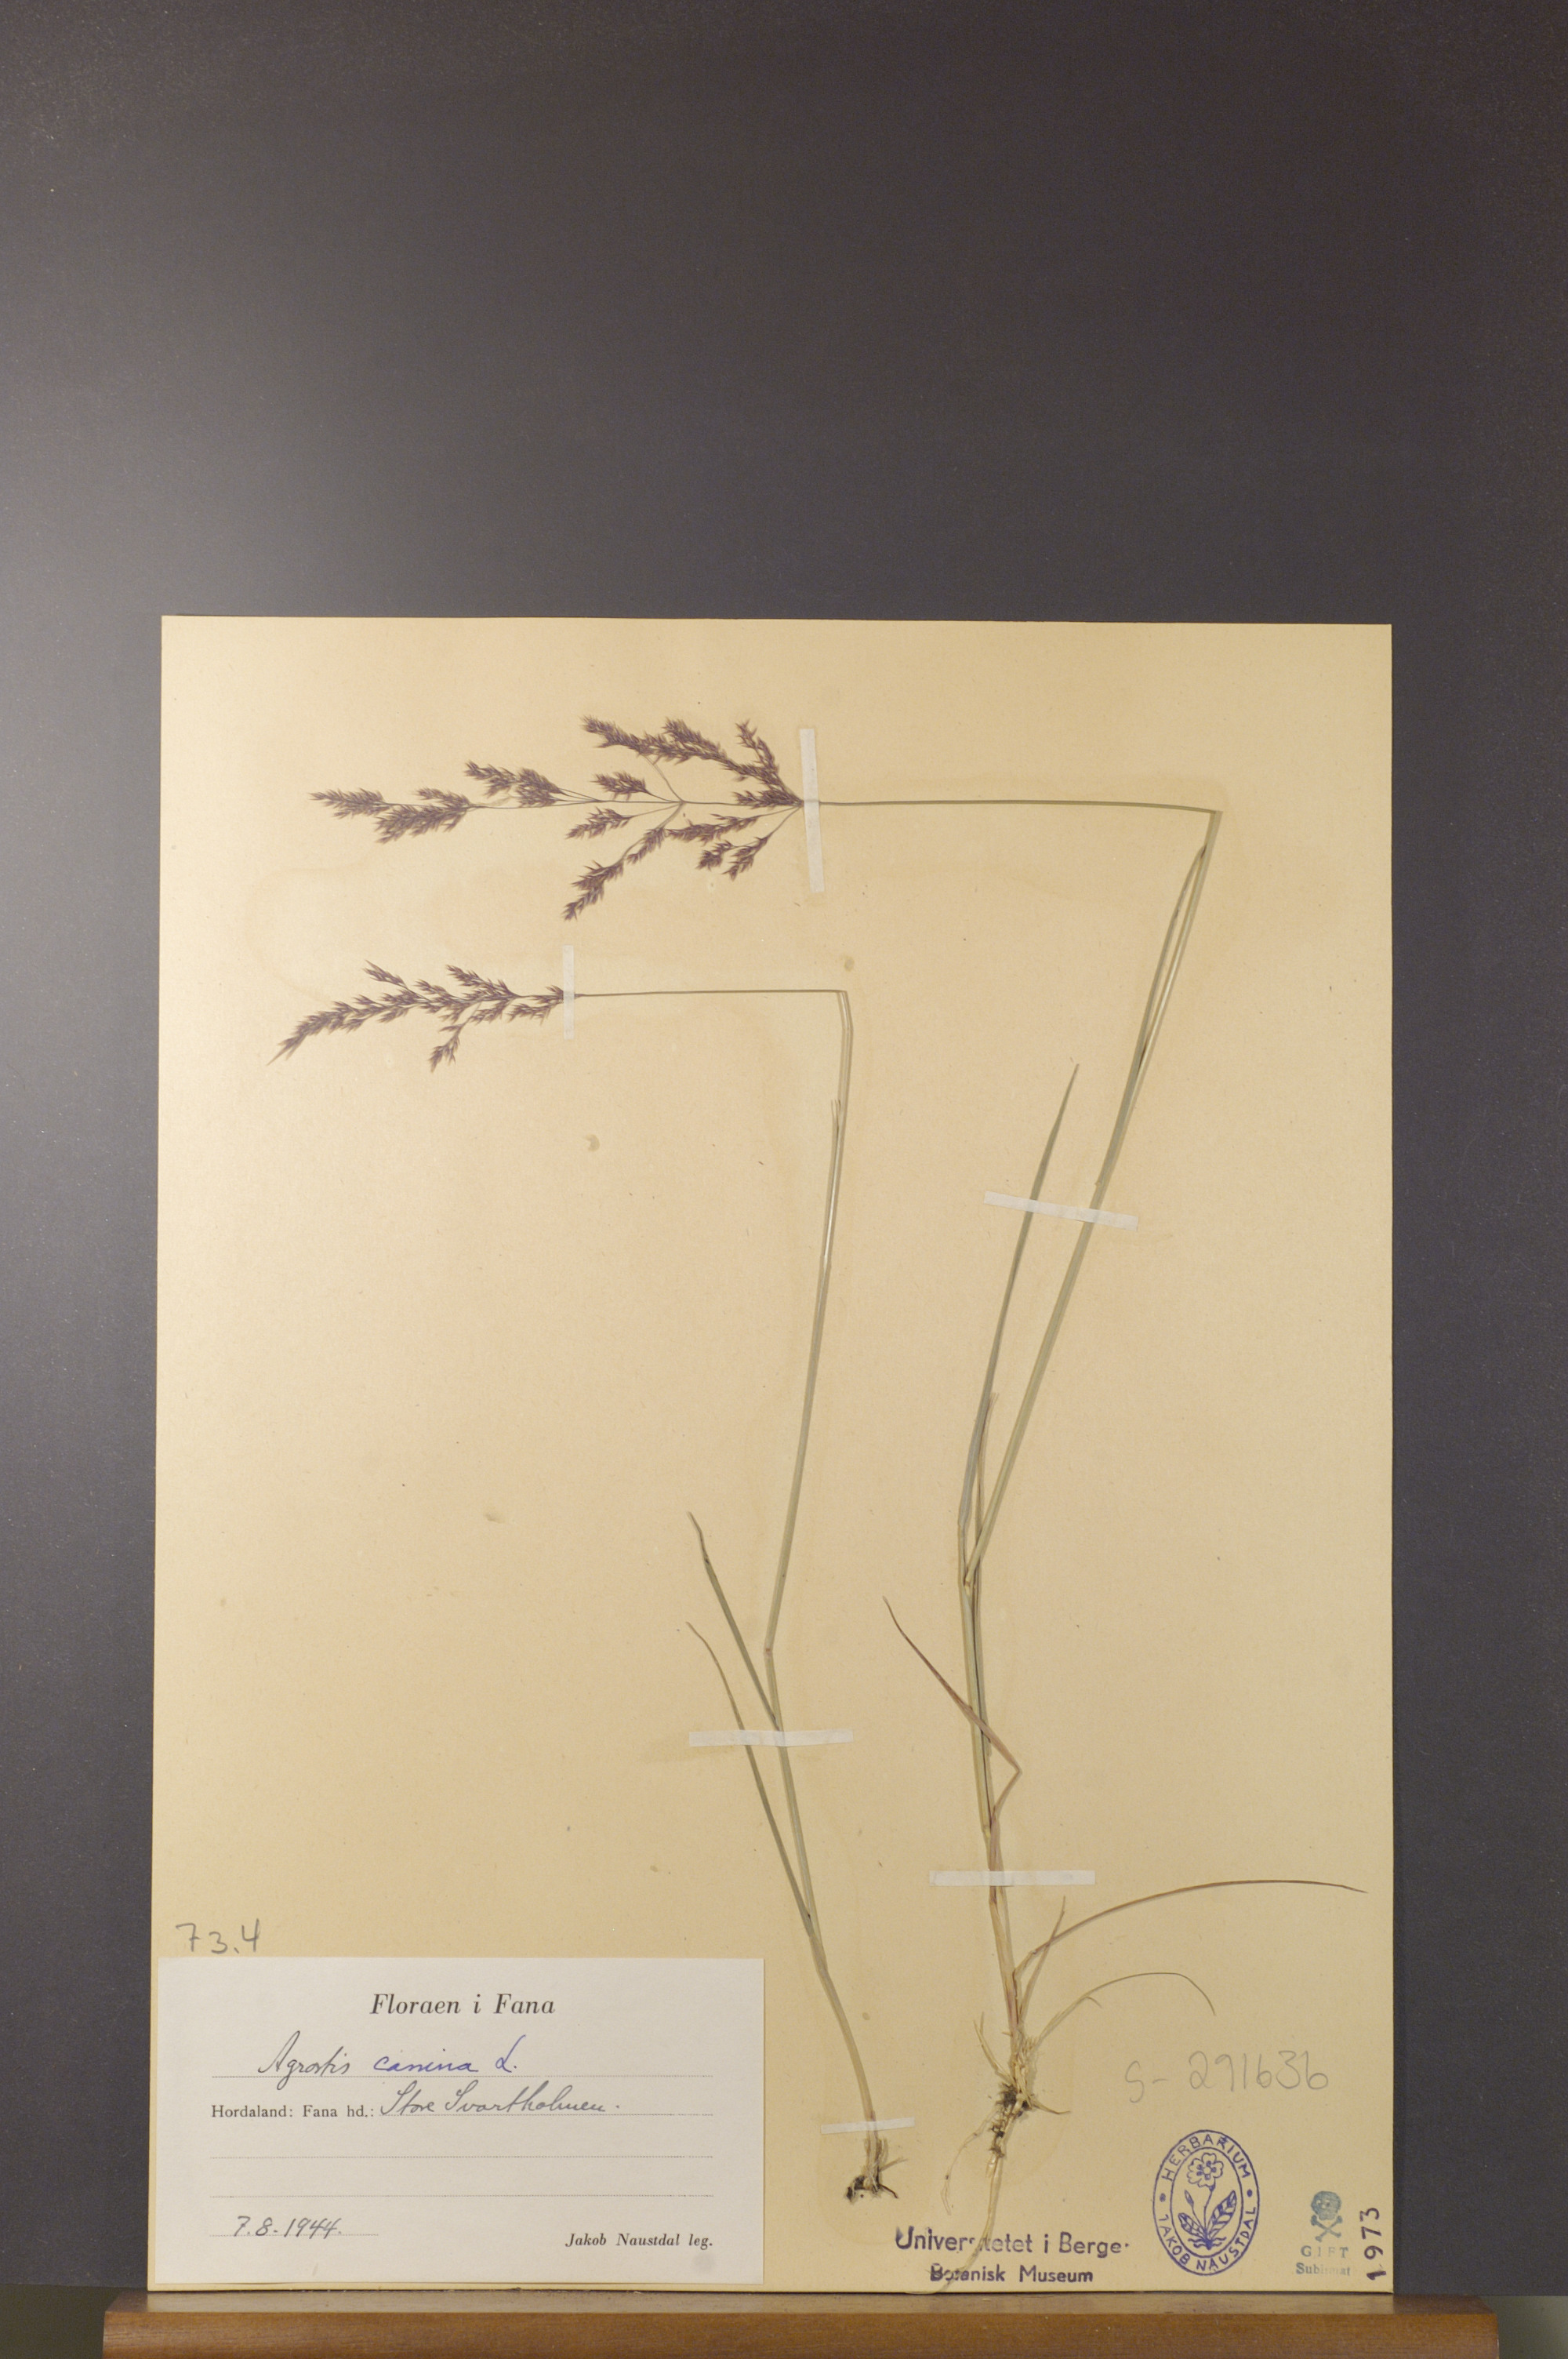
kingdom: Plantae
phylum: Tracheophyta
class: Liliopsida
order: Poales
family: Poaceae
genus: Agrostis
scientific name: Agrostis canina
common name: Velvet bent
